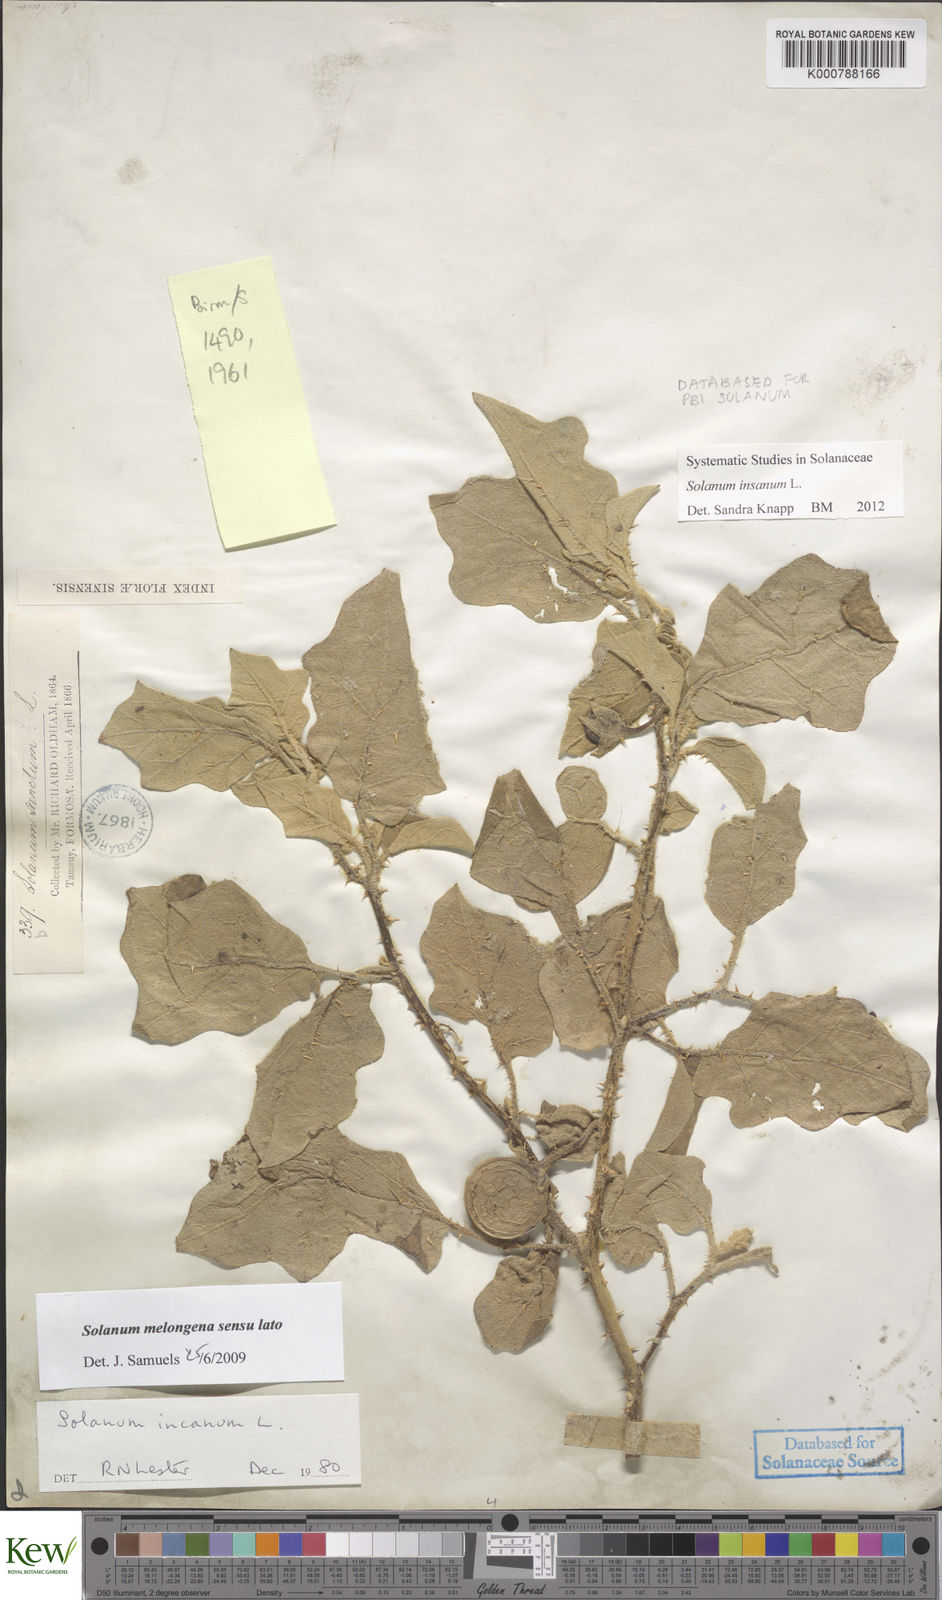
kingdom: Plantae
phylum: Tracheophyta
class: Magnoliopsida
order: Solanales
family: Solanaceae
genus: Solanum
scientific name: Solanum insanum
